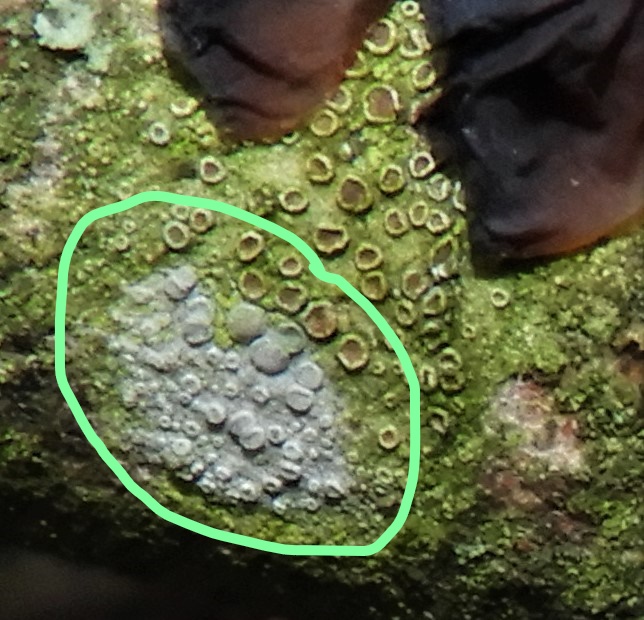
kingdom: Fungi
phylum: Ascomycota
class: Lecanoromycetes
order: Lecanorales
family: Lecanoraceae
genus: Glaucomaria
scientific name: Glaucomaria carpinea
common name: hviddugget kantskivelav
